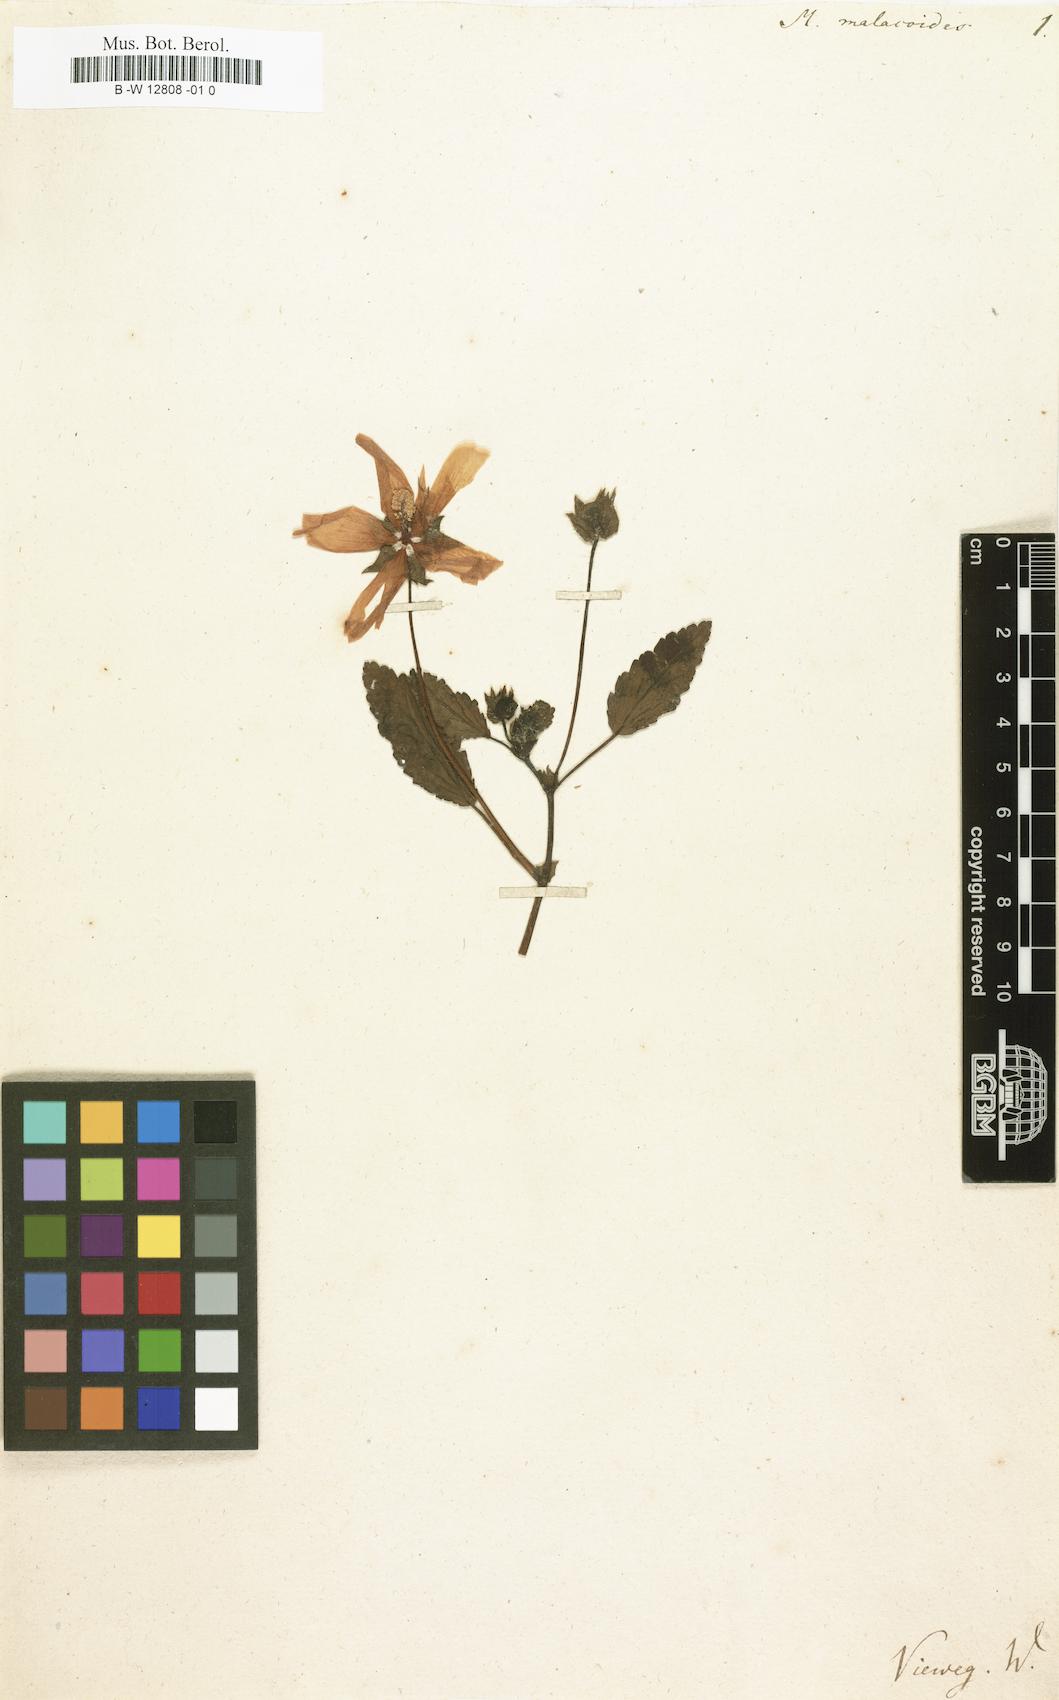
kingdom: Plantae
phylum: Tracheophyta
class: Magnoliopsida
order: Malvales
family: Malvaceae
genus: Malope
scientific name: Malope malacoides
